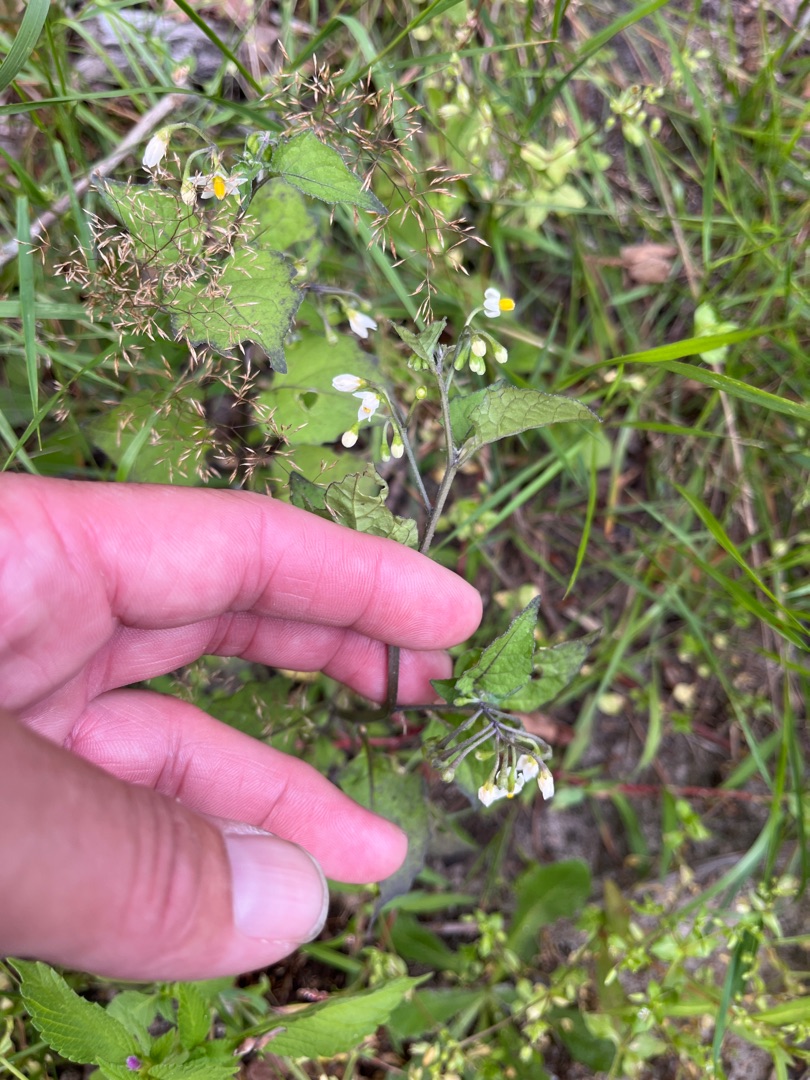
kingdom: Plantae
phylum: Tracheophyta
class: Magnoliopsida
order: Solanales
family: Solanaceae
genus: Solanum
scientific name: Solanum nigrum
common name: Sort natskygge
